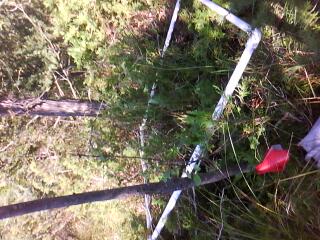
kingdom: Plantae
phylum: Tracheophyta
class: Magnoliopsida
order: Asterales
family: Asteraceae
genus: Eutrochium
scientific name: Eutrochium maculatum
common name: Spotted joe pye weed
